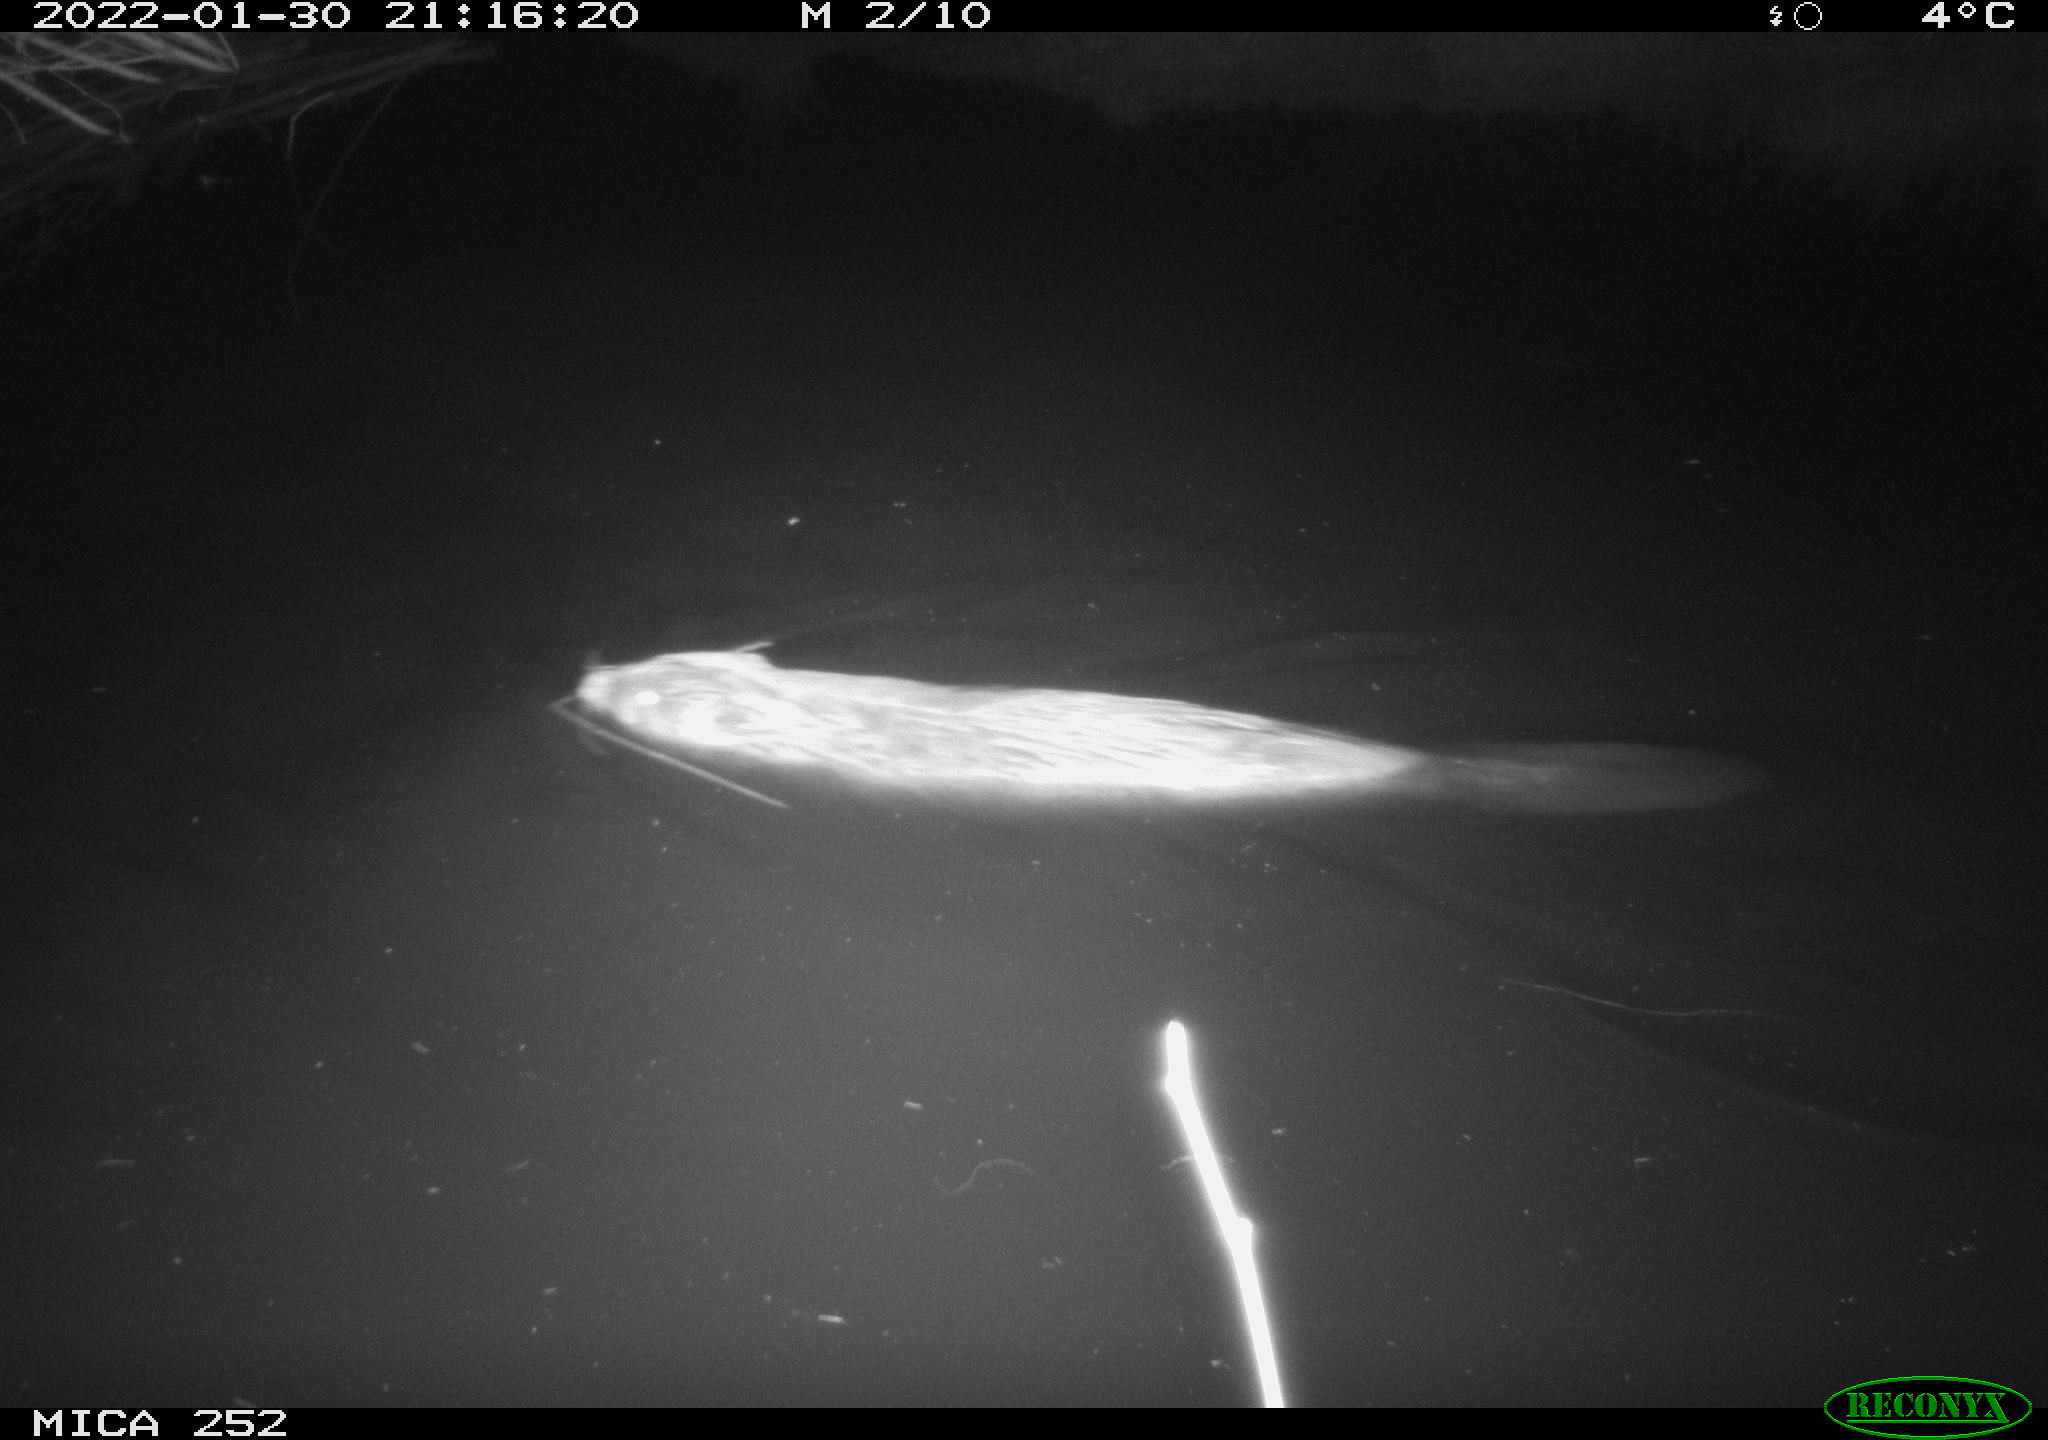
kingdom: Animalia
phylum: Chordata
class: Mammalia
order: Rodentia
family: Castoridae
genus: Castor
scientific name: Castor fiber
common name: Eurasian beaver
